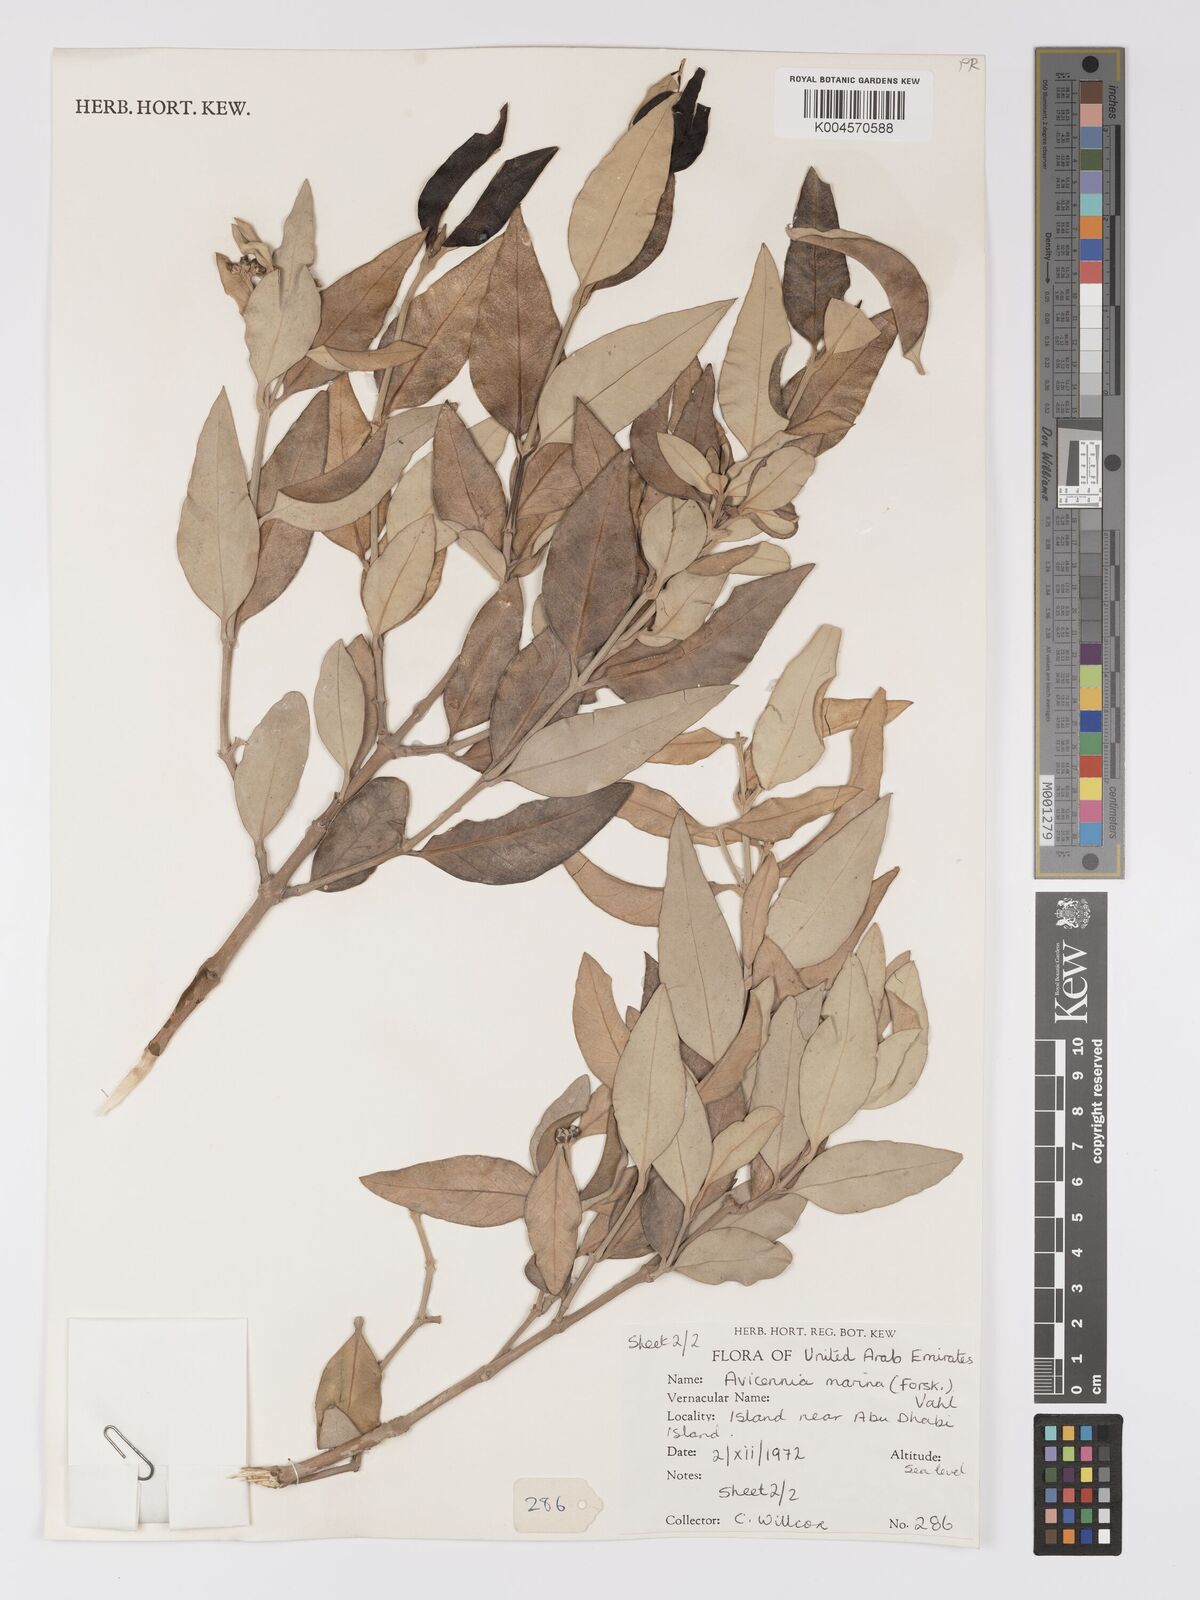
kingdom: Plantae
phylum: Tracheophyta
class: Magnoliopsida
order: Lamiales
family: Acanthaceae
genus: Avicennia
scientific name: Avicennia
